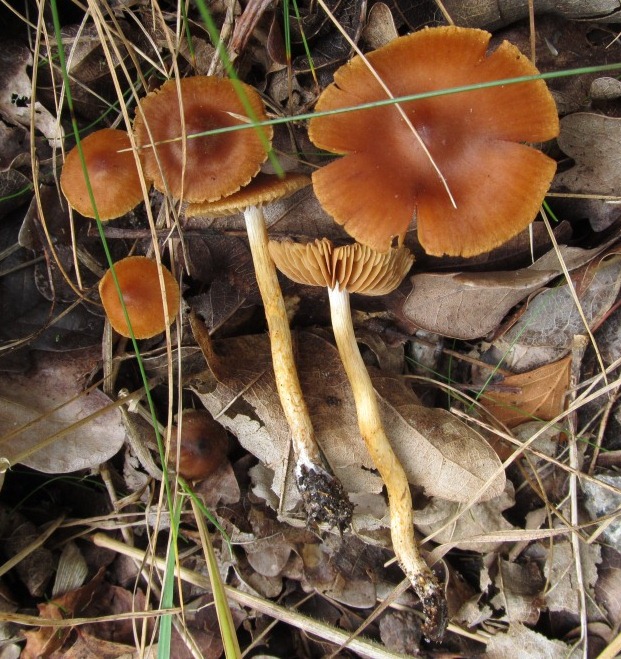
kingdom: Fungi
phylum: Basidiomycota
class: Agaricomycetes
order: Agaricales
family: Cortinariaceae
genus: Cortinarius
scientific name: Cortinarius saniosus
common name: gultrævlet slørhat
